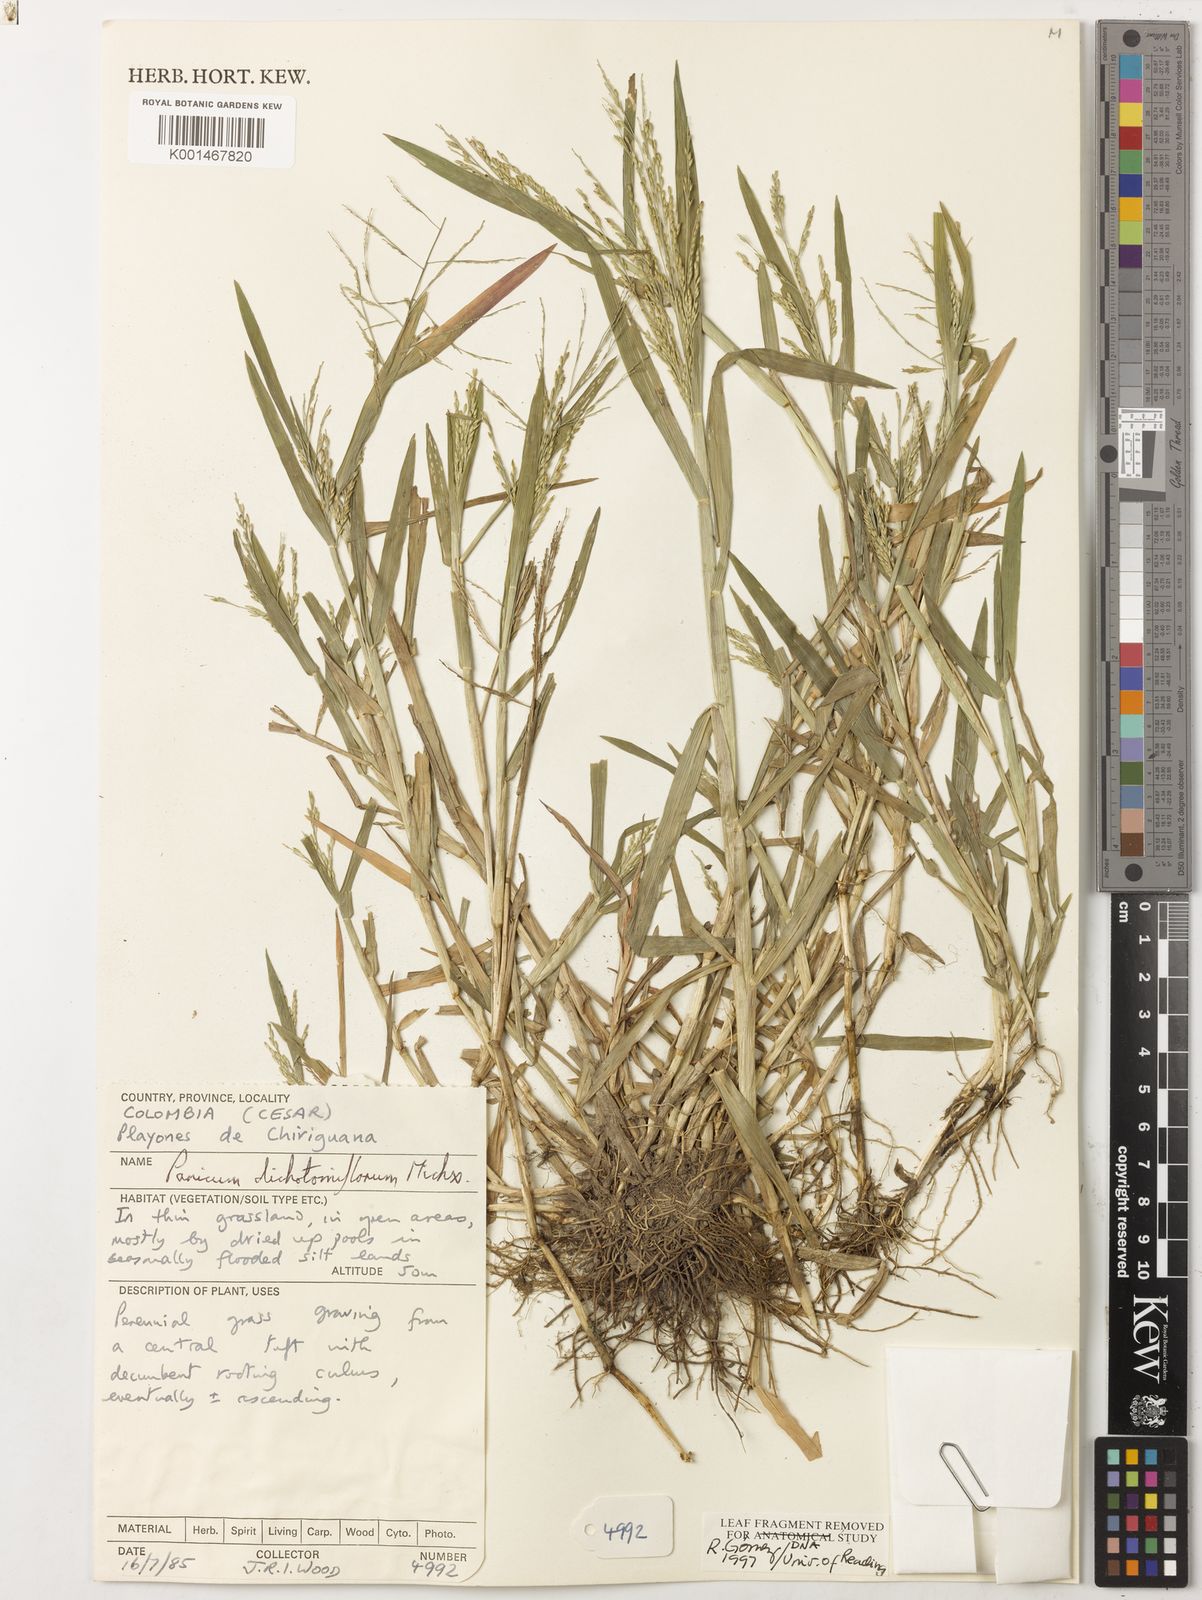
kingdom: Plantae
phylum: Tracheophyta
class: Liliopsida
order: Poales
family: Poaceae
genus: Panicum
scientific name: Panicum dichotomiflorum
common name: Autumn millet
